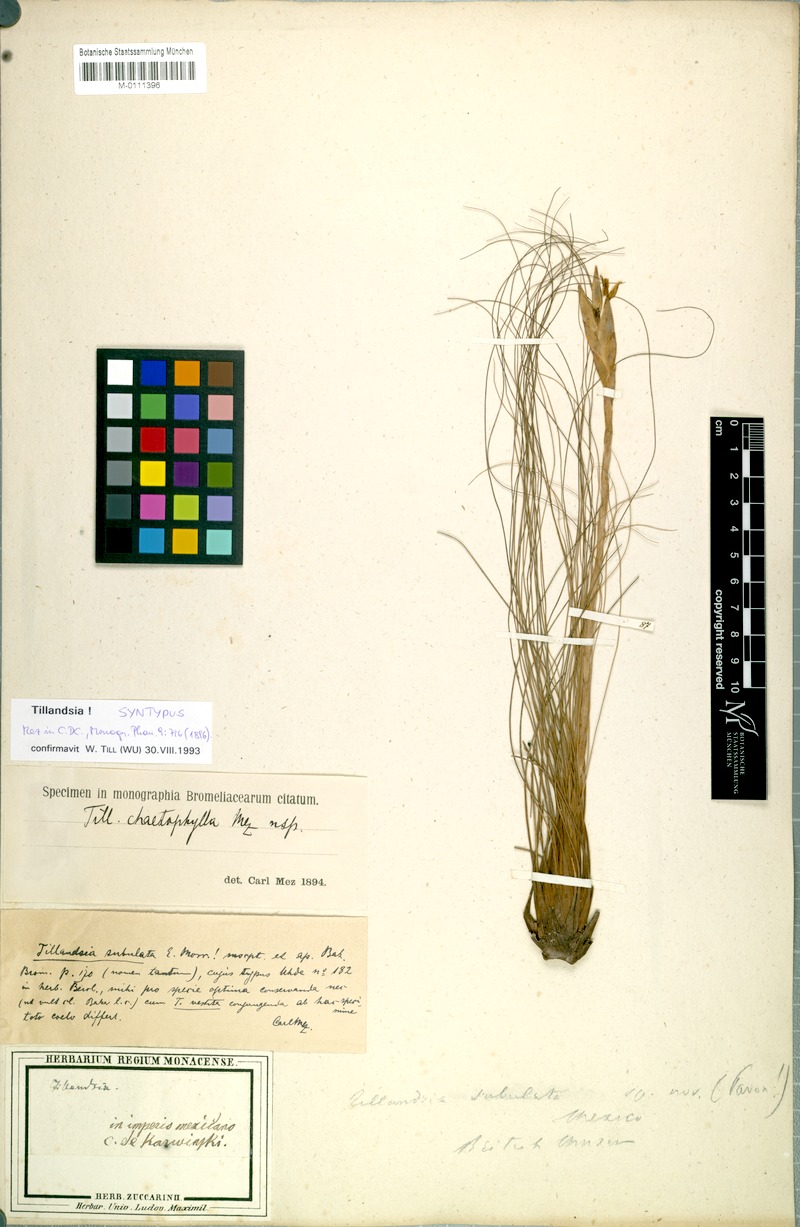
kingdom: Plantae
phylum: Tracheophyta
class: Liliopsida
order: Poales
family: Bromeliaceae
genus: Tillandsia
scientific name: Tillandsia chaetophylla
